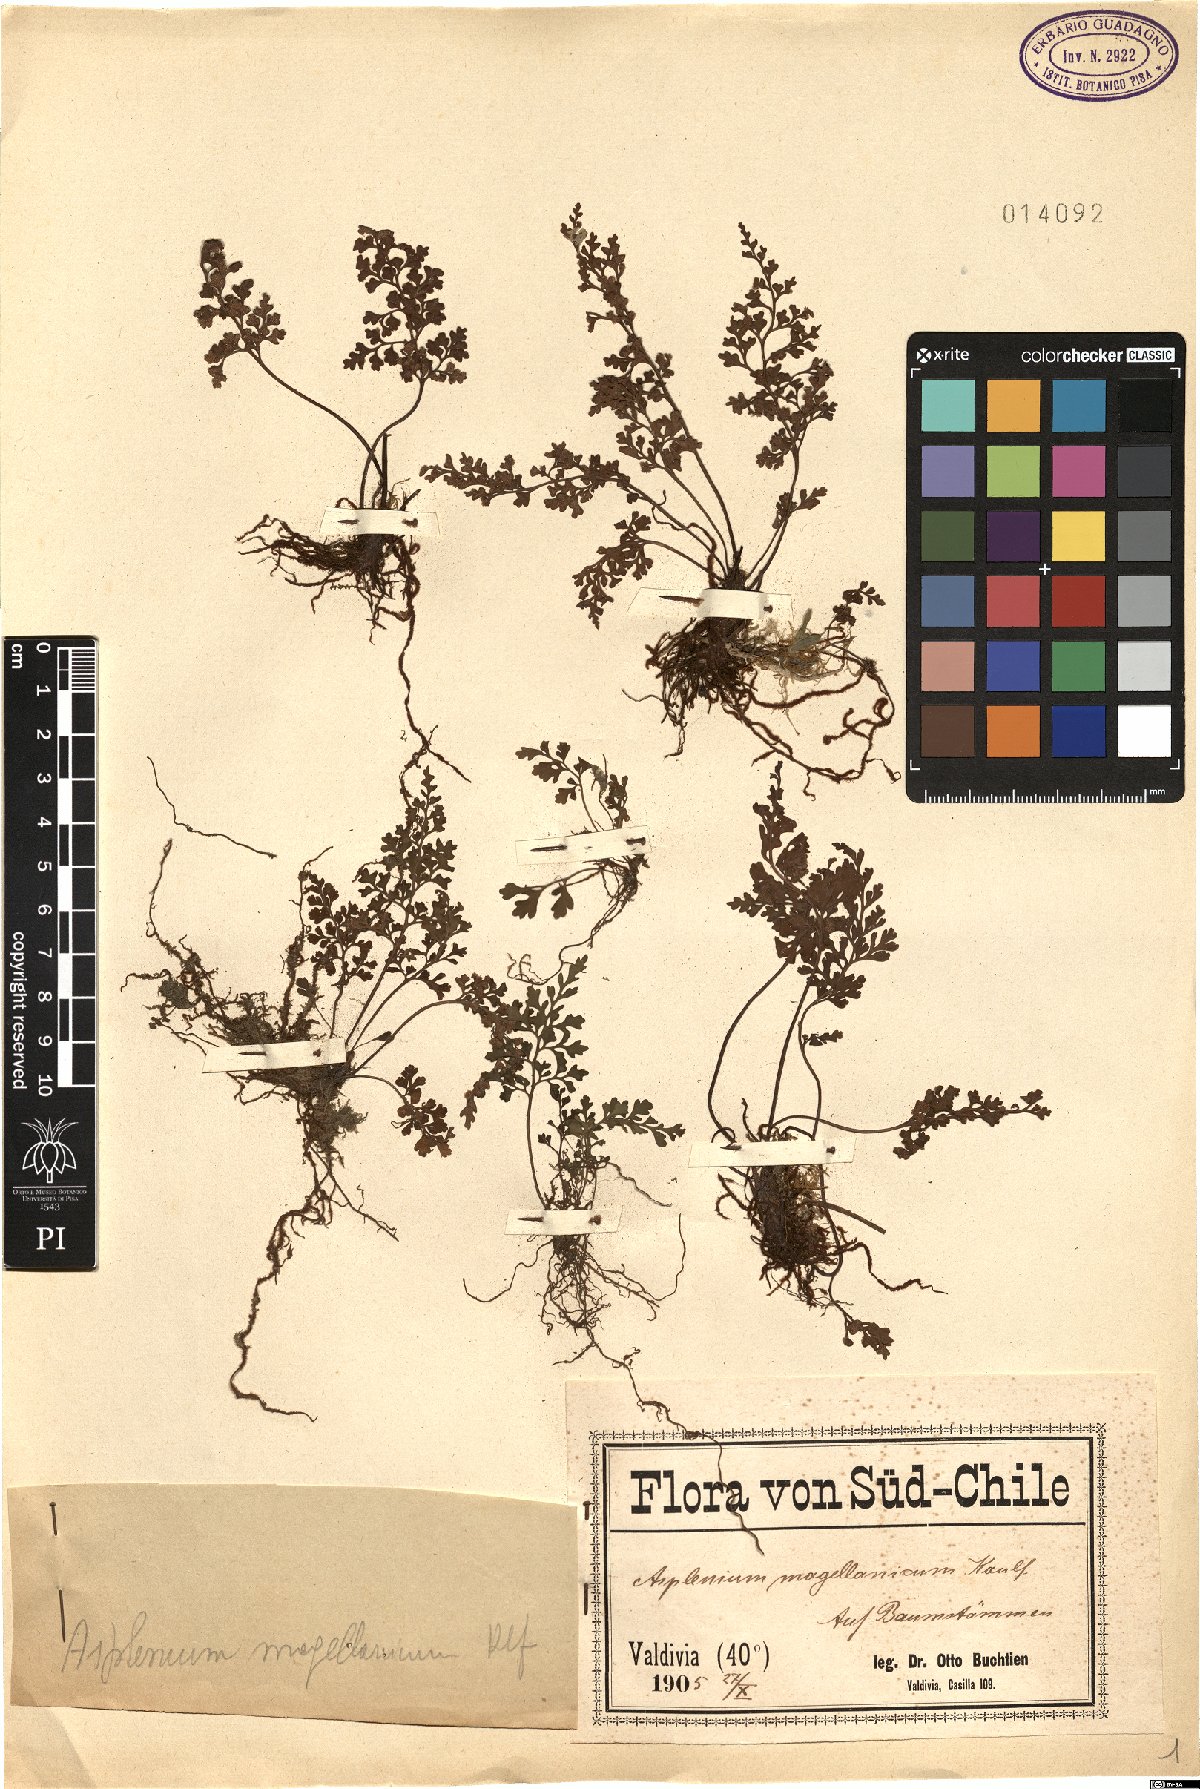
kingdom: Plantae
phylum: Tracheophyta
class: Polypodiopsida
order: Polypodiales
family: Aspleniaceae
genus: Asplenium
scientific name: Asplenium dareoides
